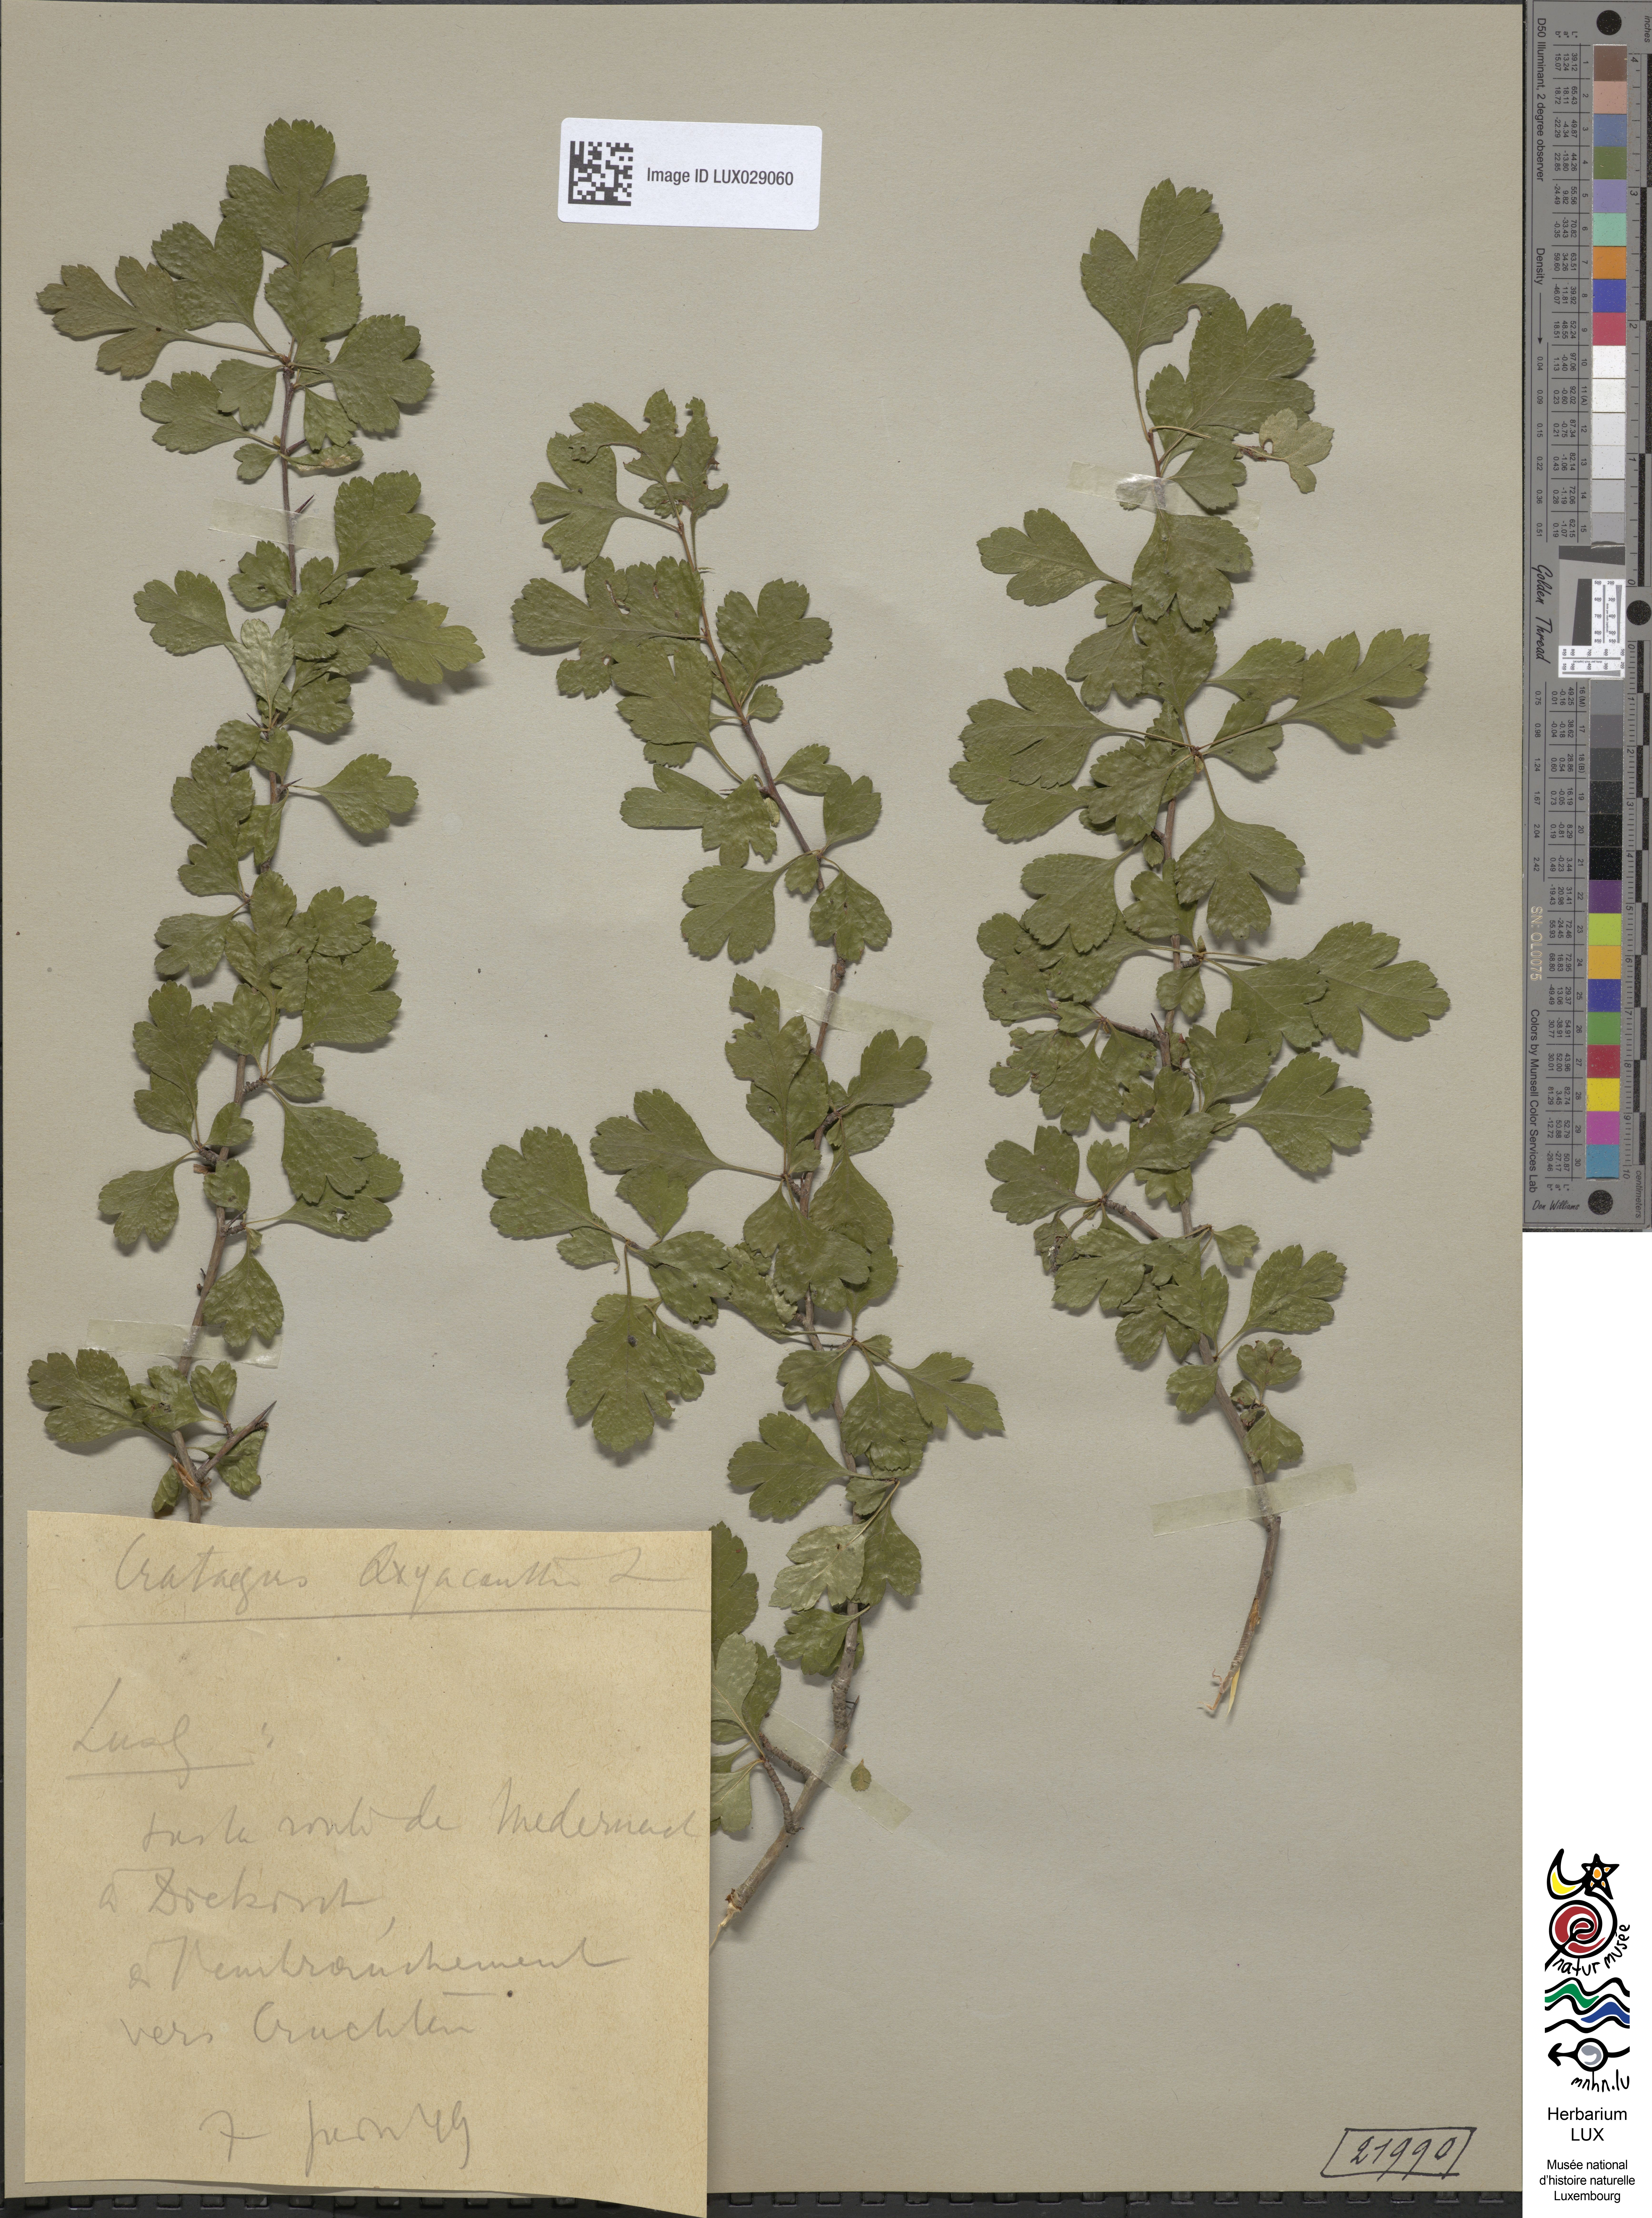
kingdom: Plantae
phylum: Tracheophyta
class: Magnoliopsida
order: Rosales
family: Rosaceae
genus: Crataegus
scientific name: Crataegus monogyna
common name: Hawthorn
